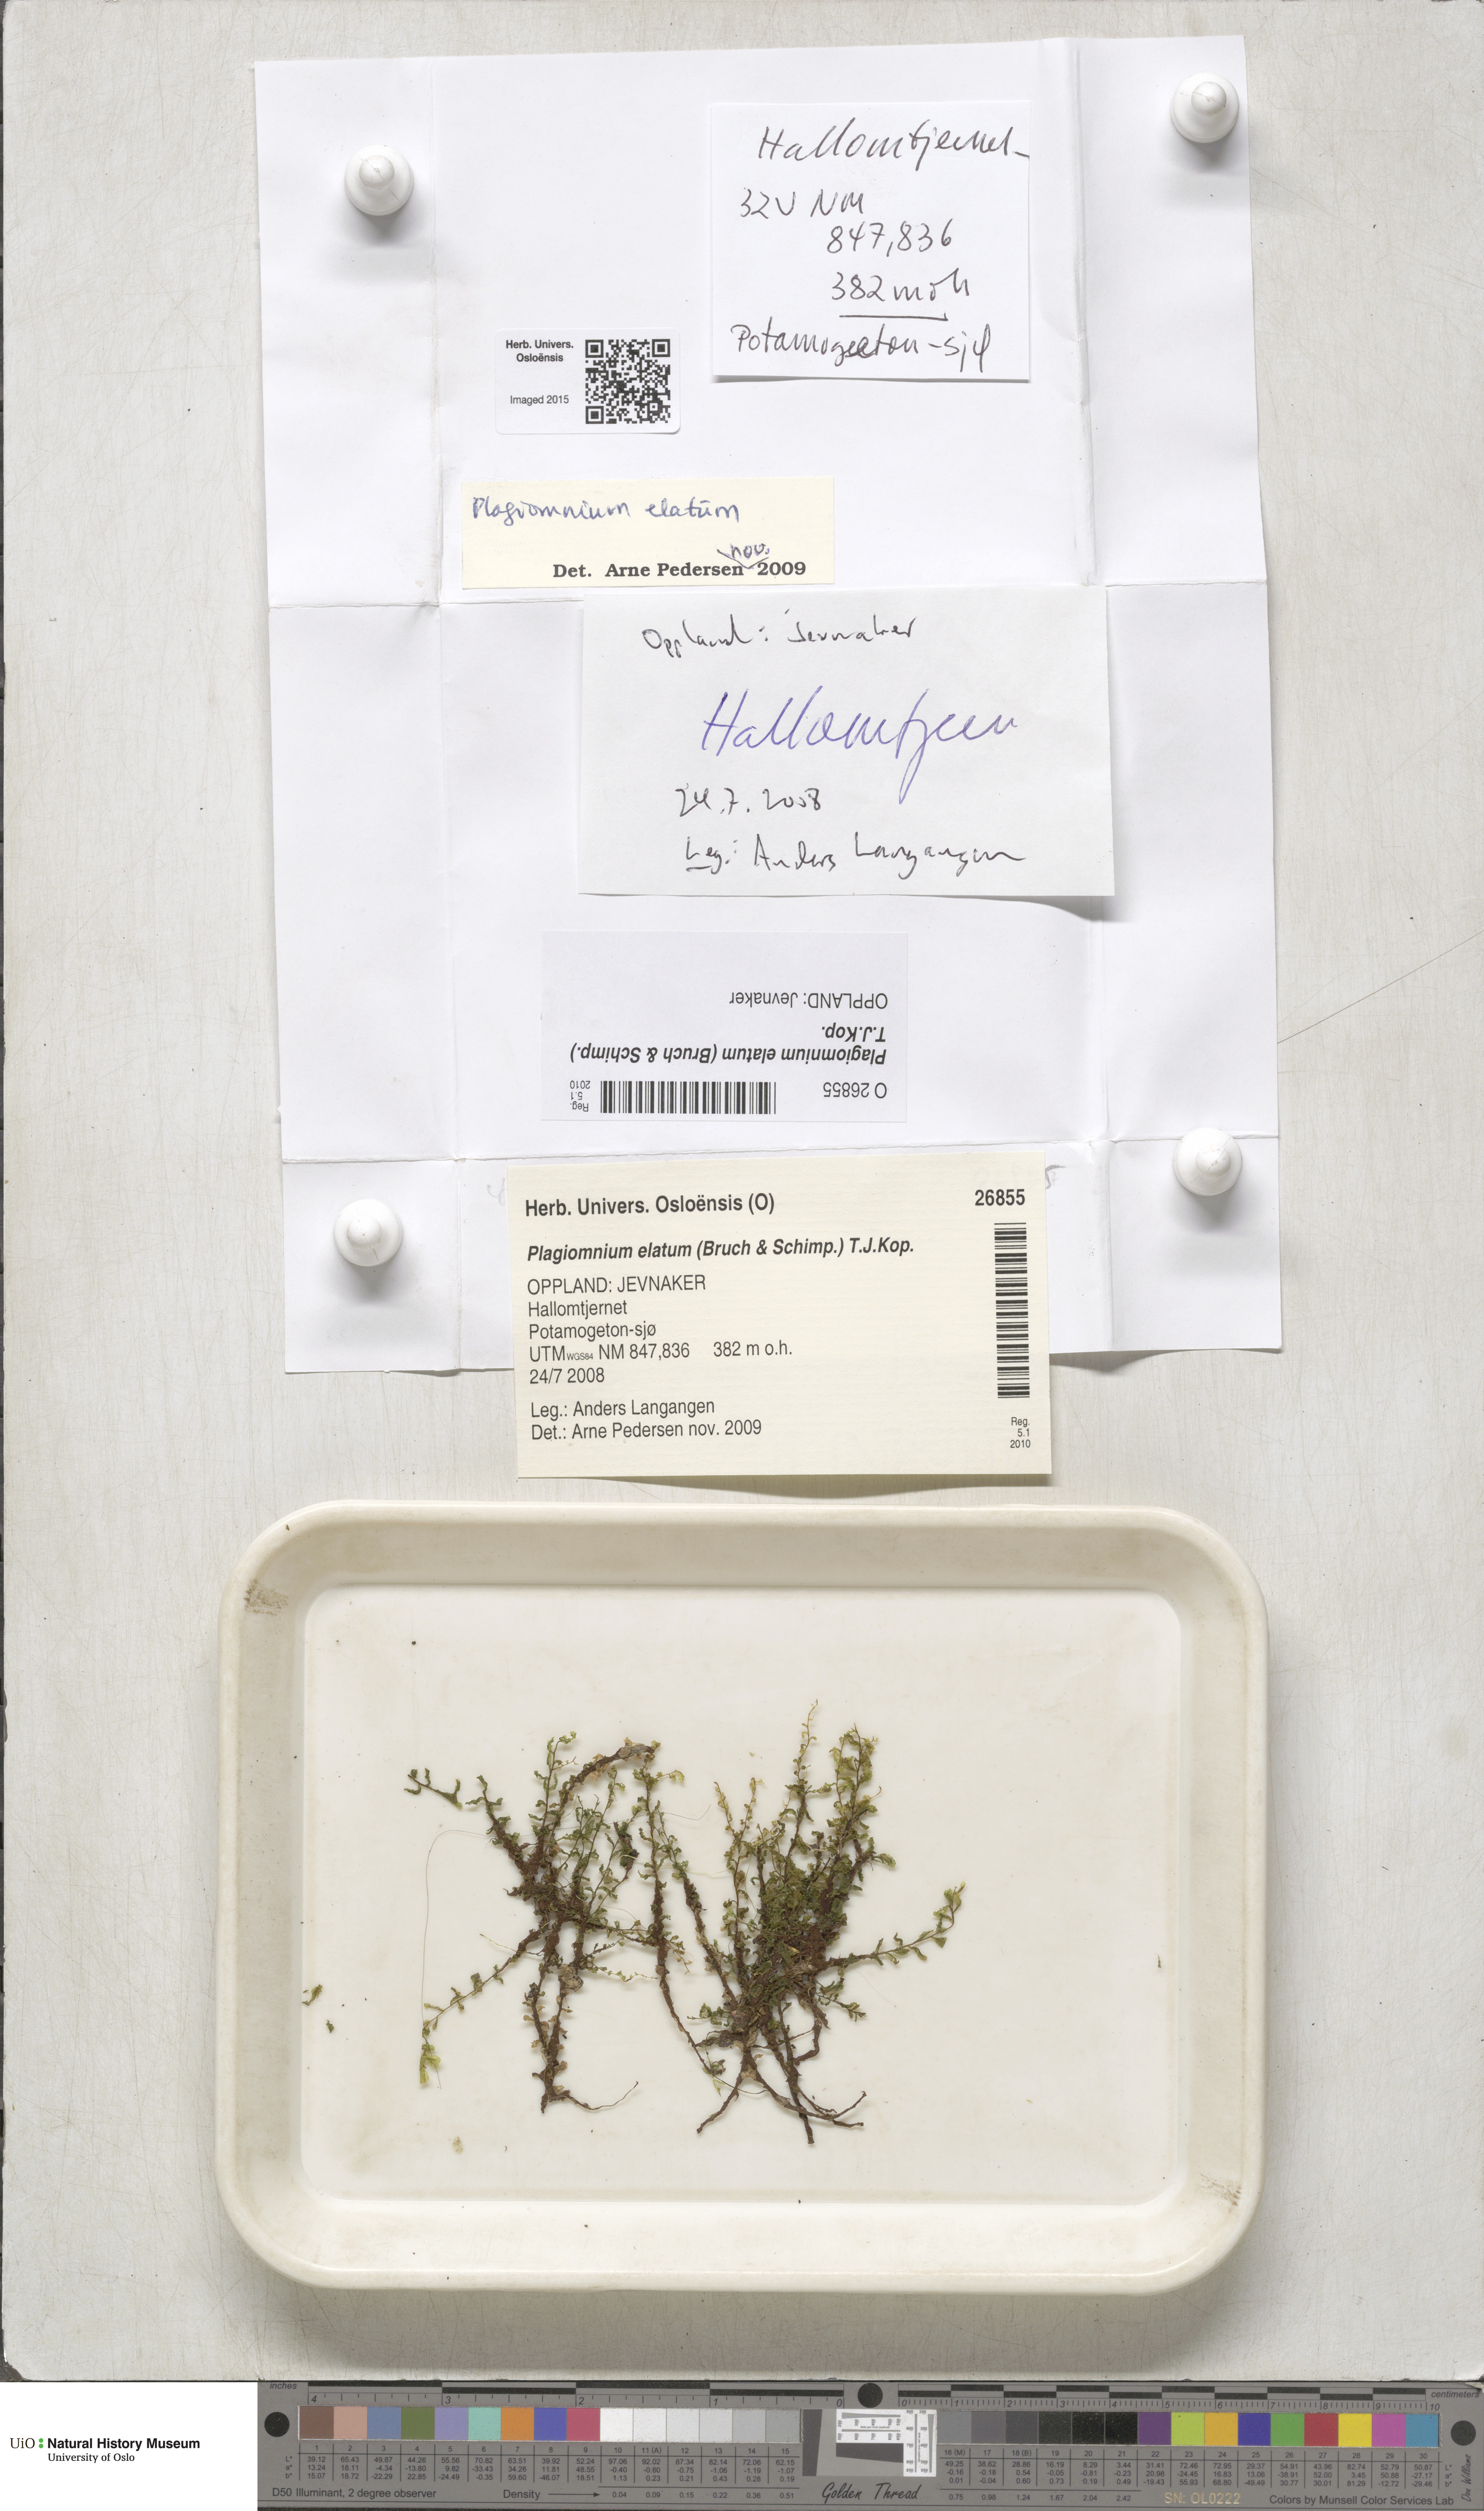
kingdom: Plantae
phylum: Bryophyta
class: Bryopsida
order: Bryales
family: Mniaceae
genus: Plagiomnium
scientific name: Plagiomnium elatum
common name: Tall thyme-moss
